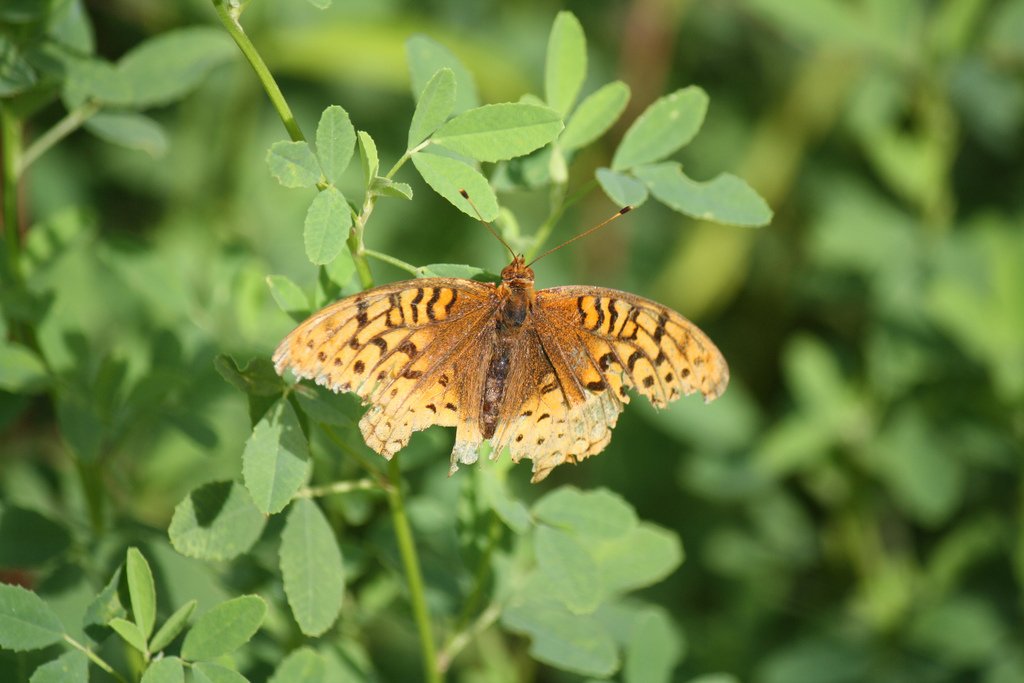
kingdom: Animalia
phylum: Arthropoda
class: Insecta
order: Lepidoptera
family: Nymphalidae
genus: Speyeria
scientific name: Speyeria cybele
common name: Great Spangled Fritillary
